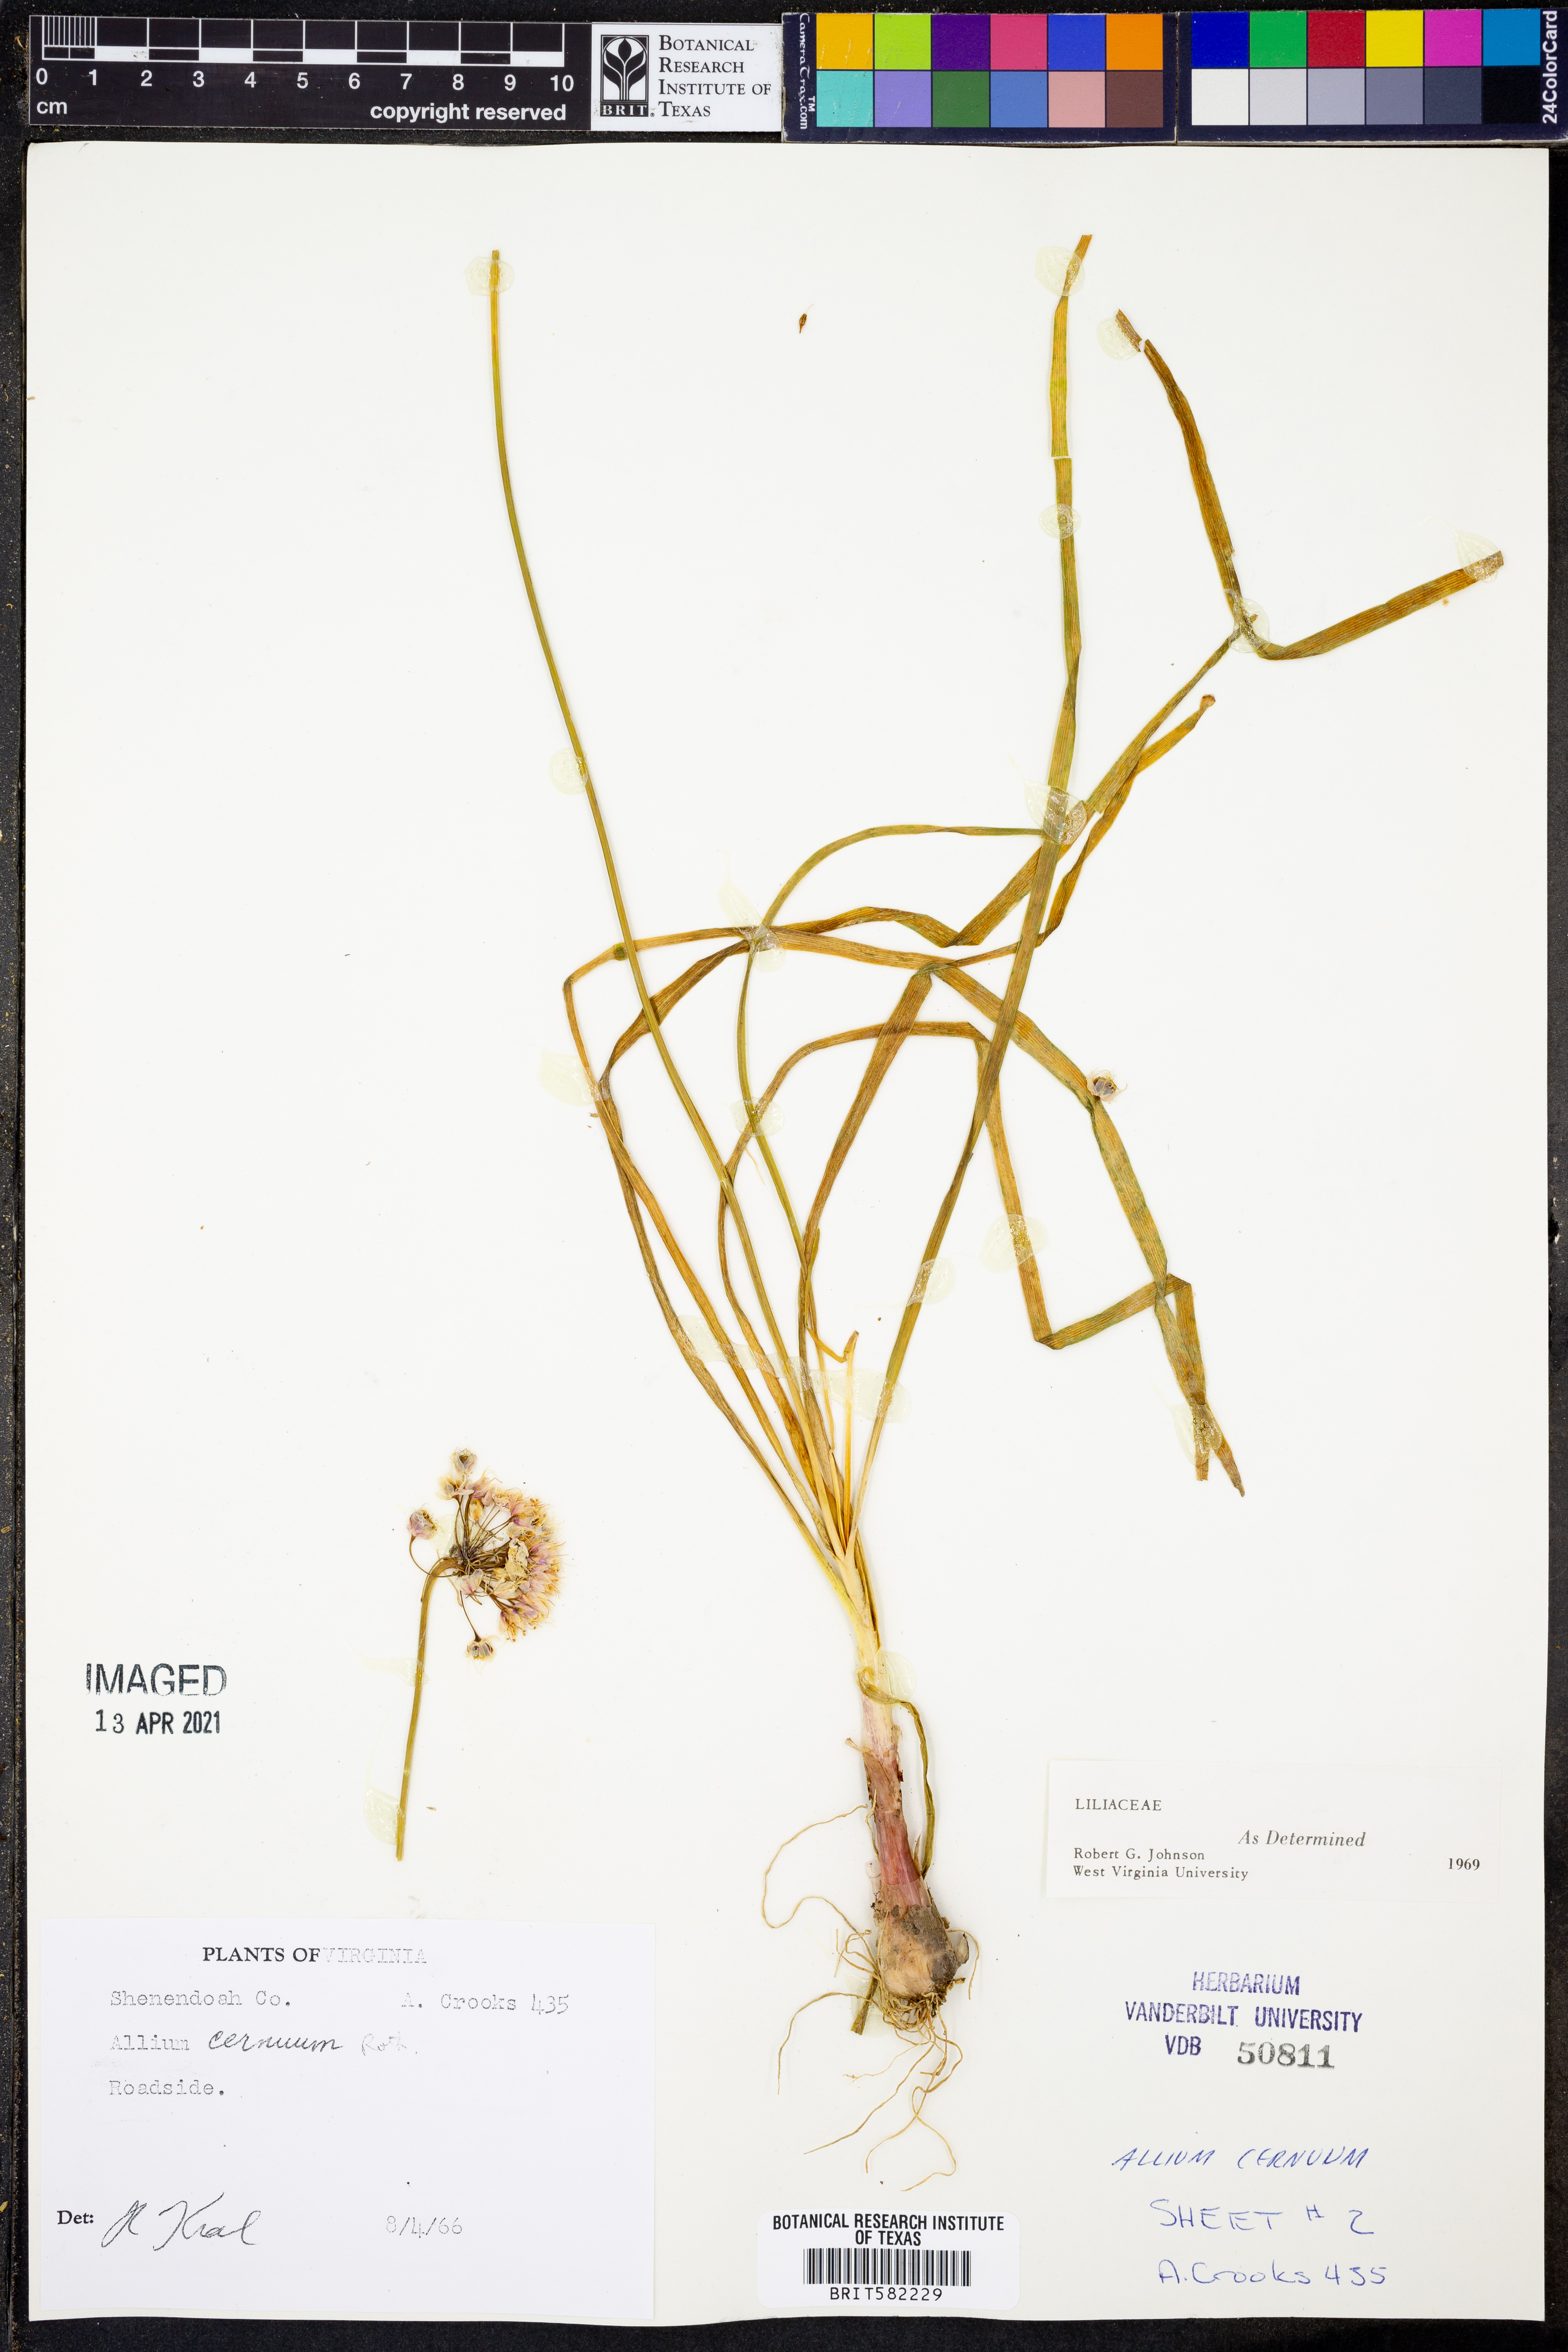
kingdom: Plantae
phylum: Tracheophyta
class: Liliopsida
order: Asparagales
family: Amaryllidaceae
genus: Allium
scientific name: Allium cernuum
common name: Nodding onion
